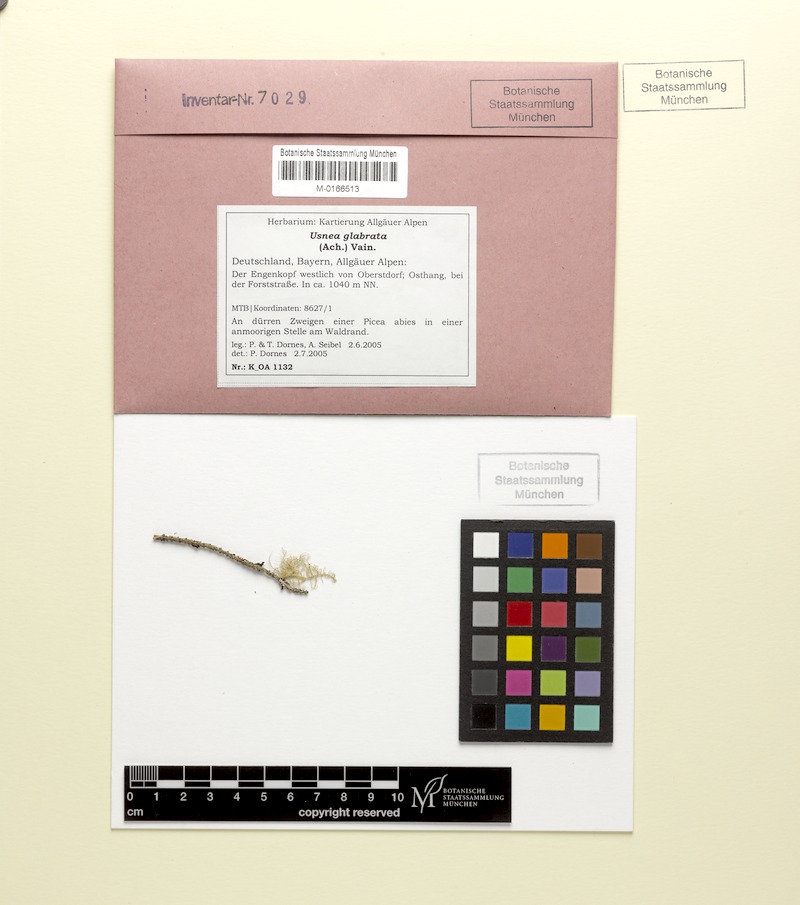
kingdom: Fungi
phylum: Ascomycota
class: Lecanoromycetes
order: Lecanorales
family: Parmeliaceae
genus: Usnea
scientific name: Usnea glabrata
